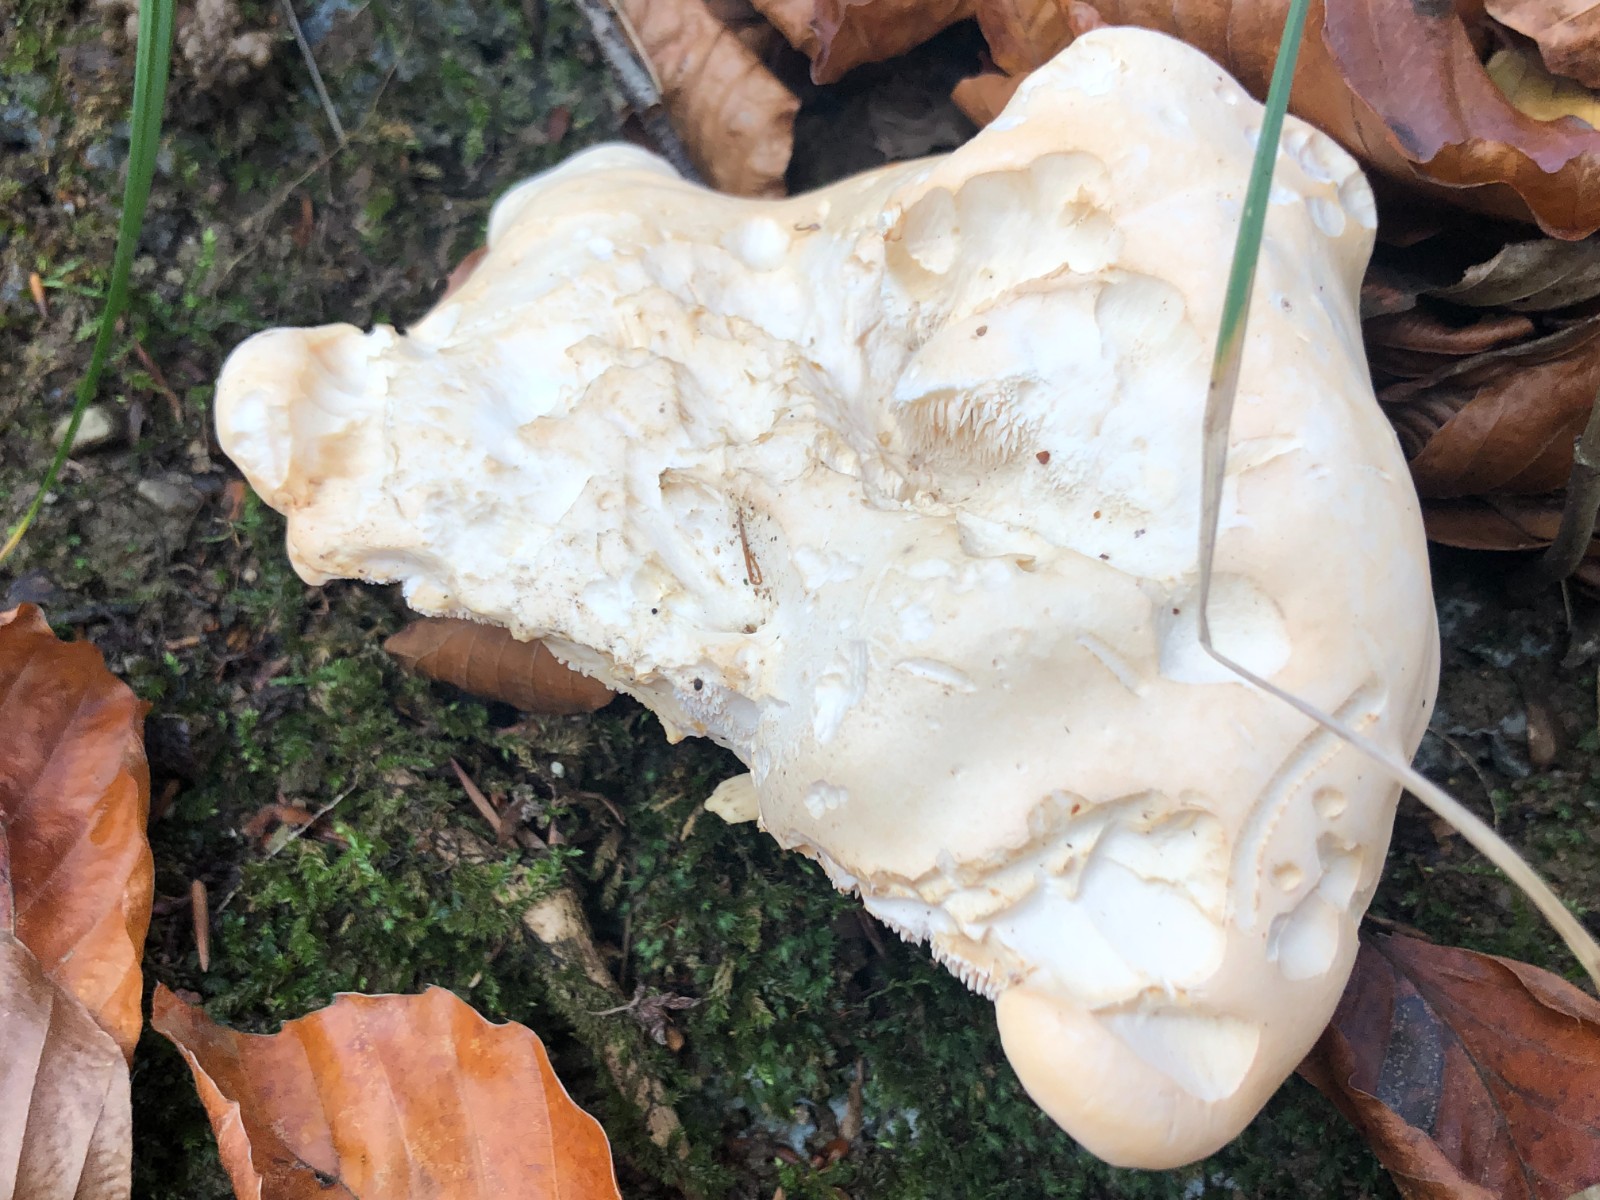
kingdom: Fungi
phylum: Basidiomycota
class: Agaricomycetes
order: Cantharellales
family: Hydnaceae
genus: Hydnum
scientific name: Hydnum repandum
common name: almindelig pigsvamp
